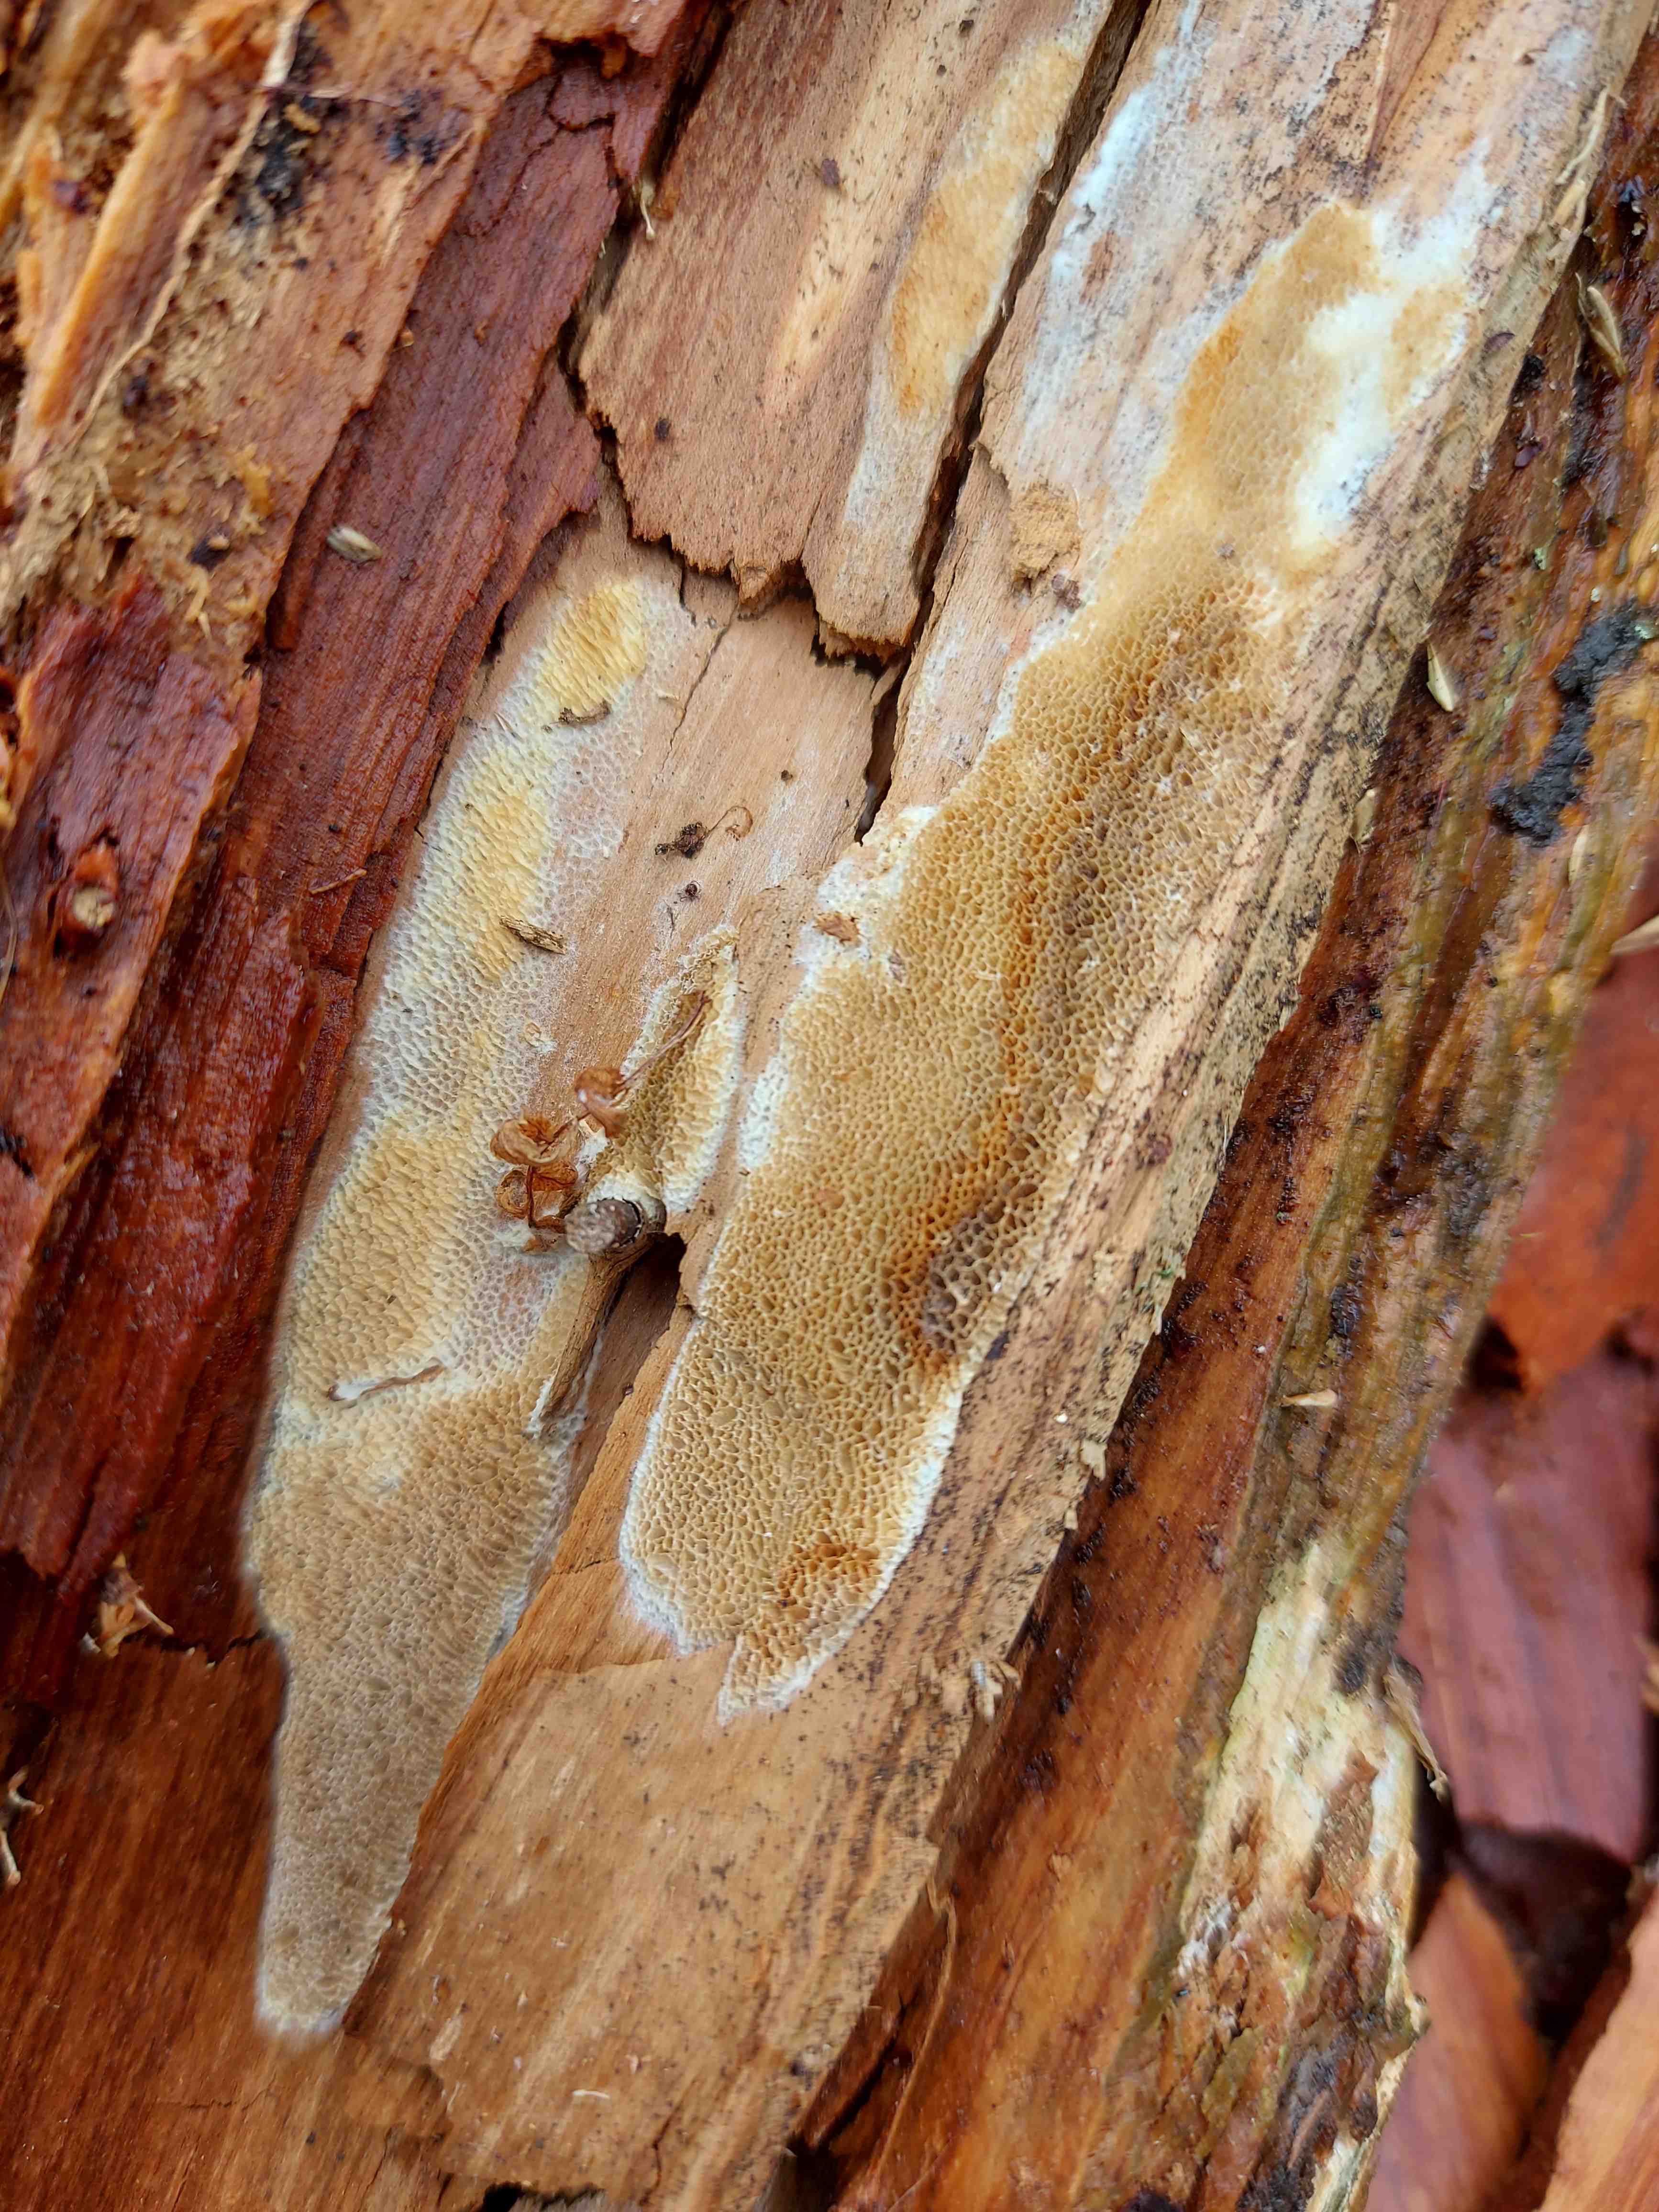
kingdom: Fungi
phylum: Basidiomycota
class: Agaricomycetes
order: Polyporales
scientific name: Polyporales
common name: poresvampordenen
